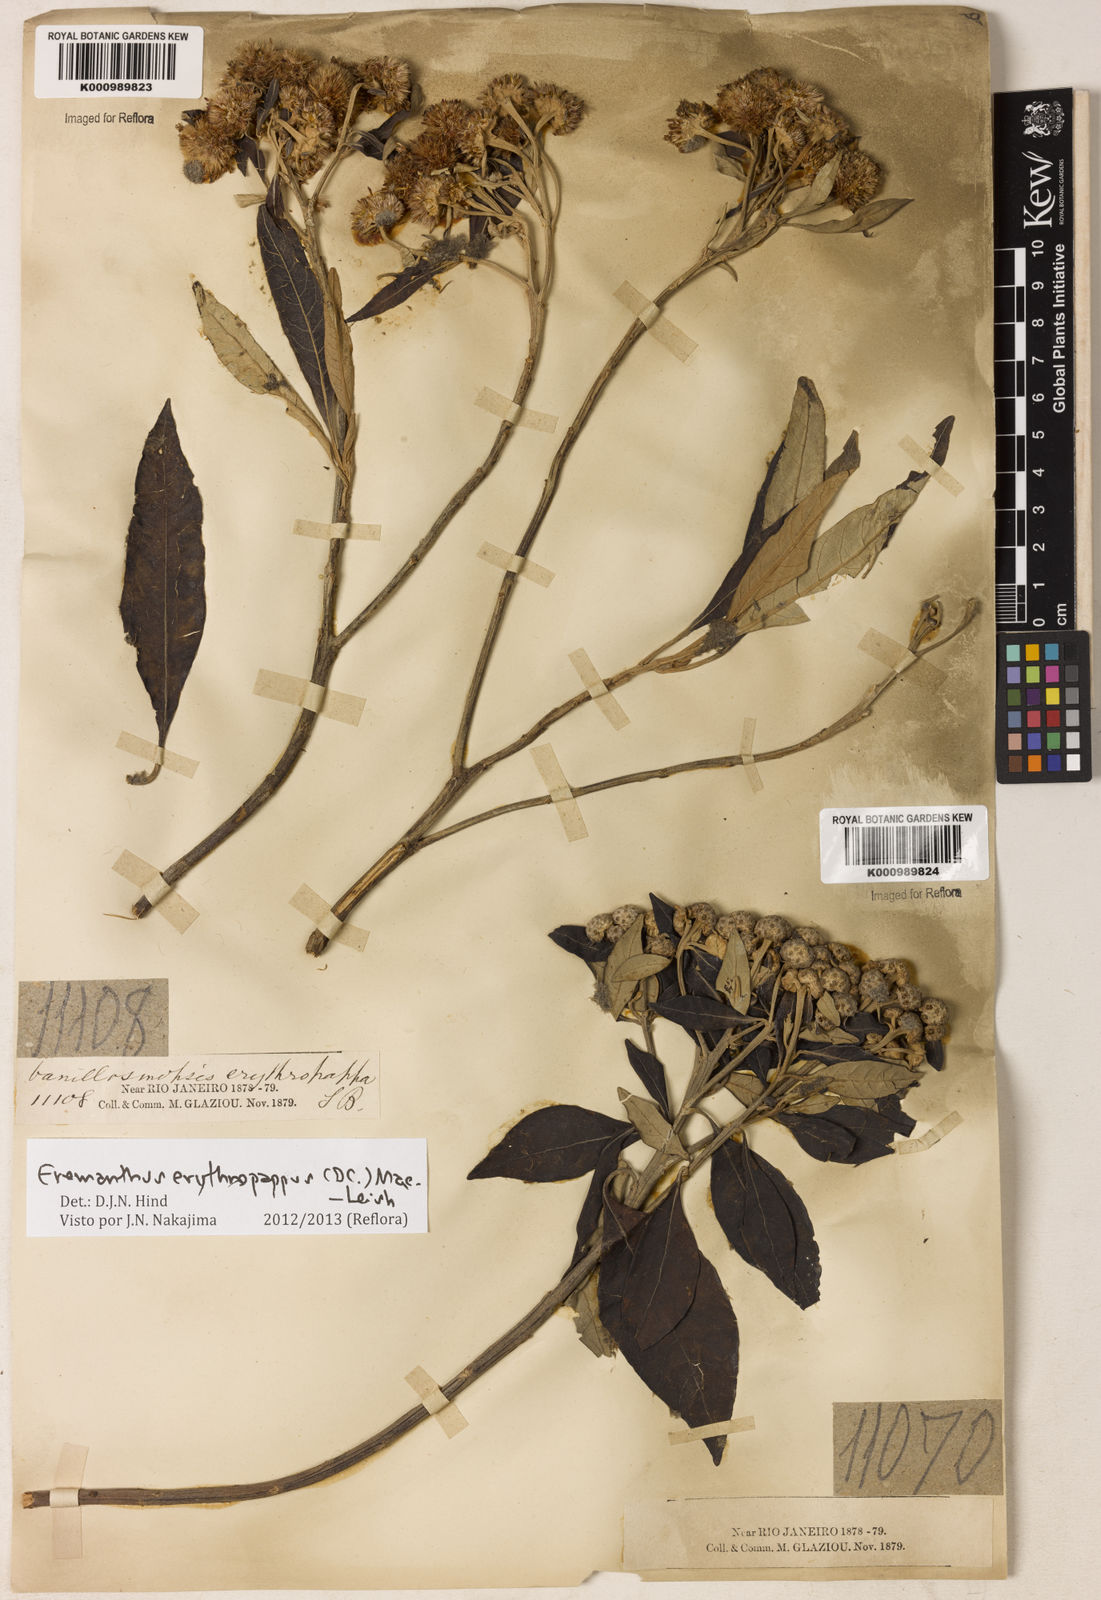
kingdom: Plantae
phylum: Tracheophyta
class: Magnoliopsida
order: Asterales
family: Asteraceae
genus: Eremanthus
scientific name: Eremanthus erythropappus
